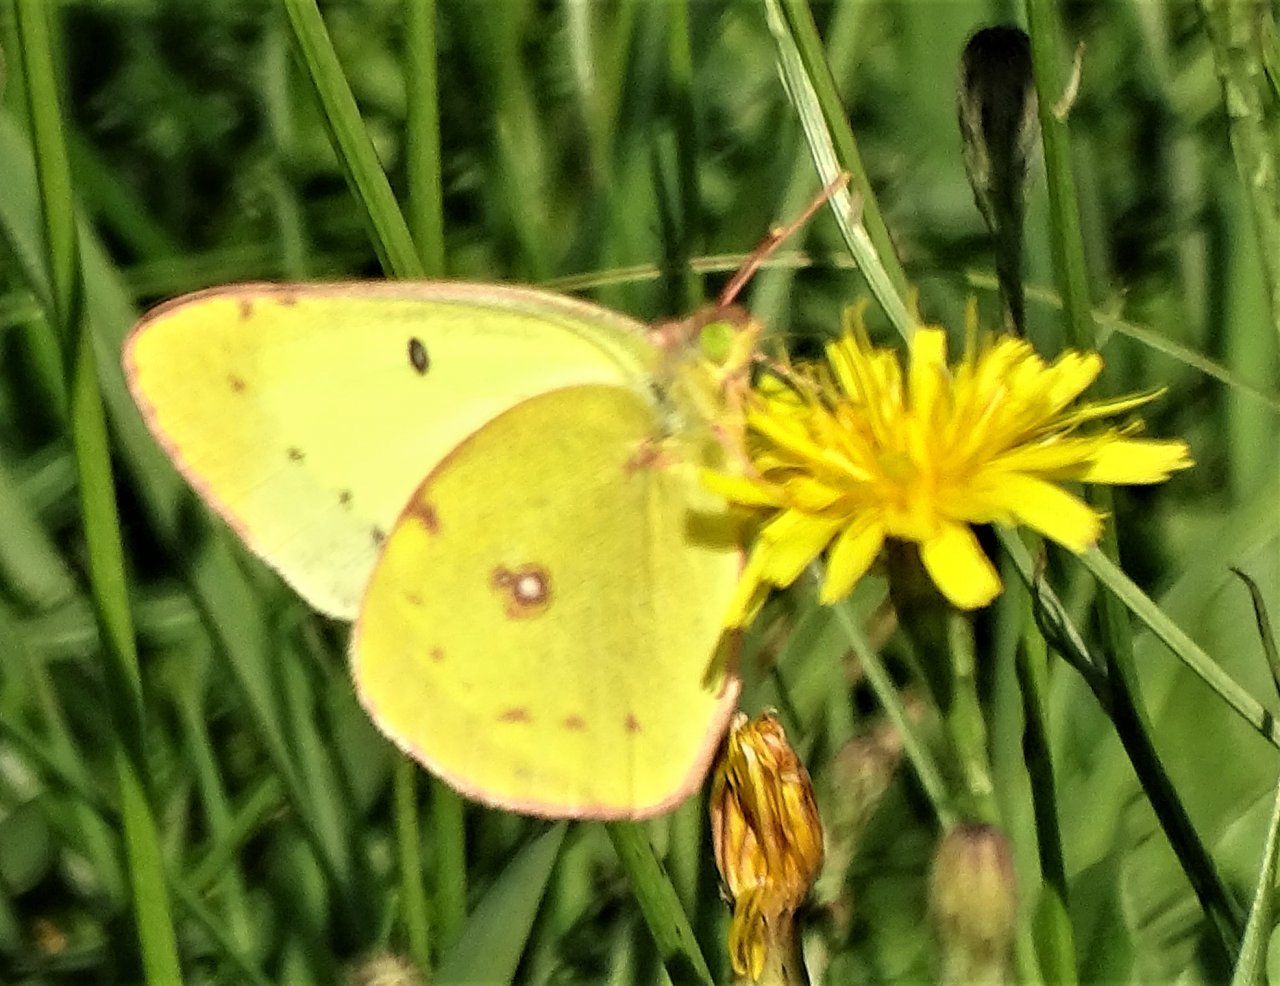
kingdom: Animalia
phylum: Arthropoda
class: Insecta
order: Lepidoptera
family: Pieridae
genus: Colias
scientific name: Colias philodice
